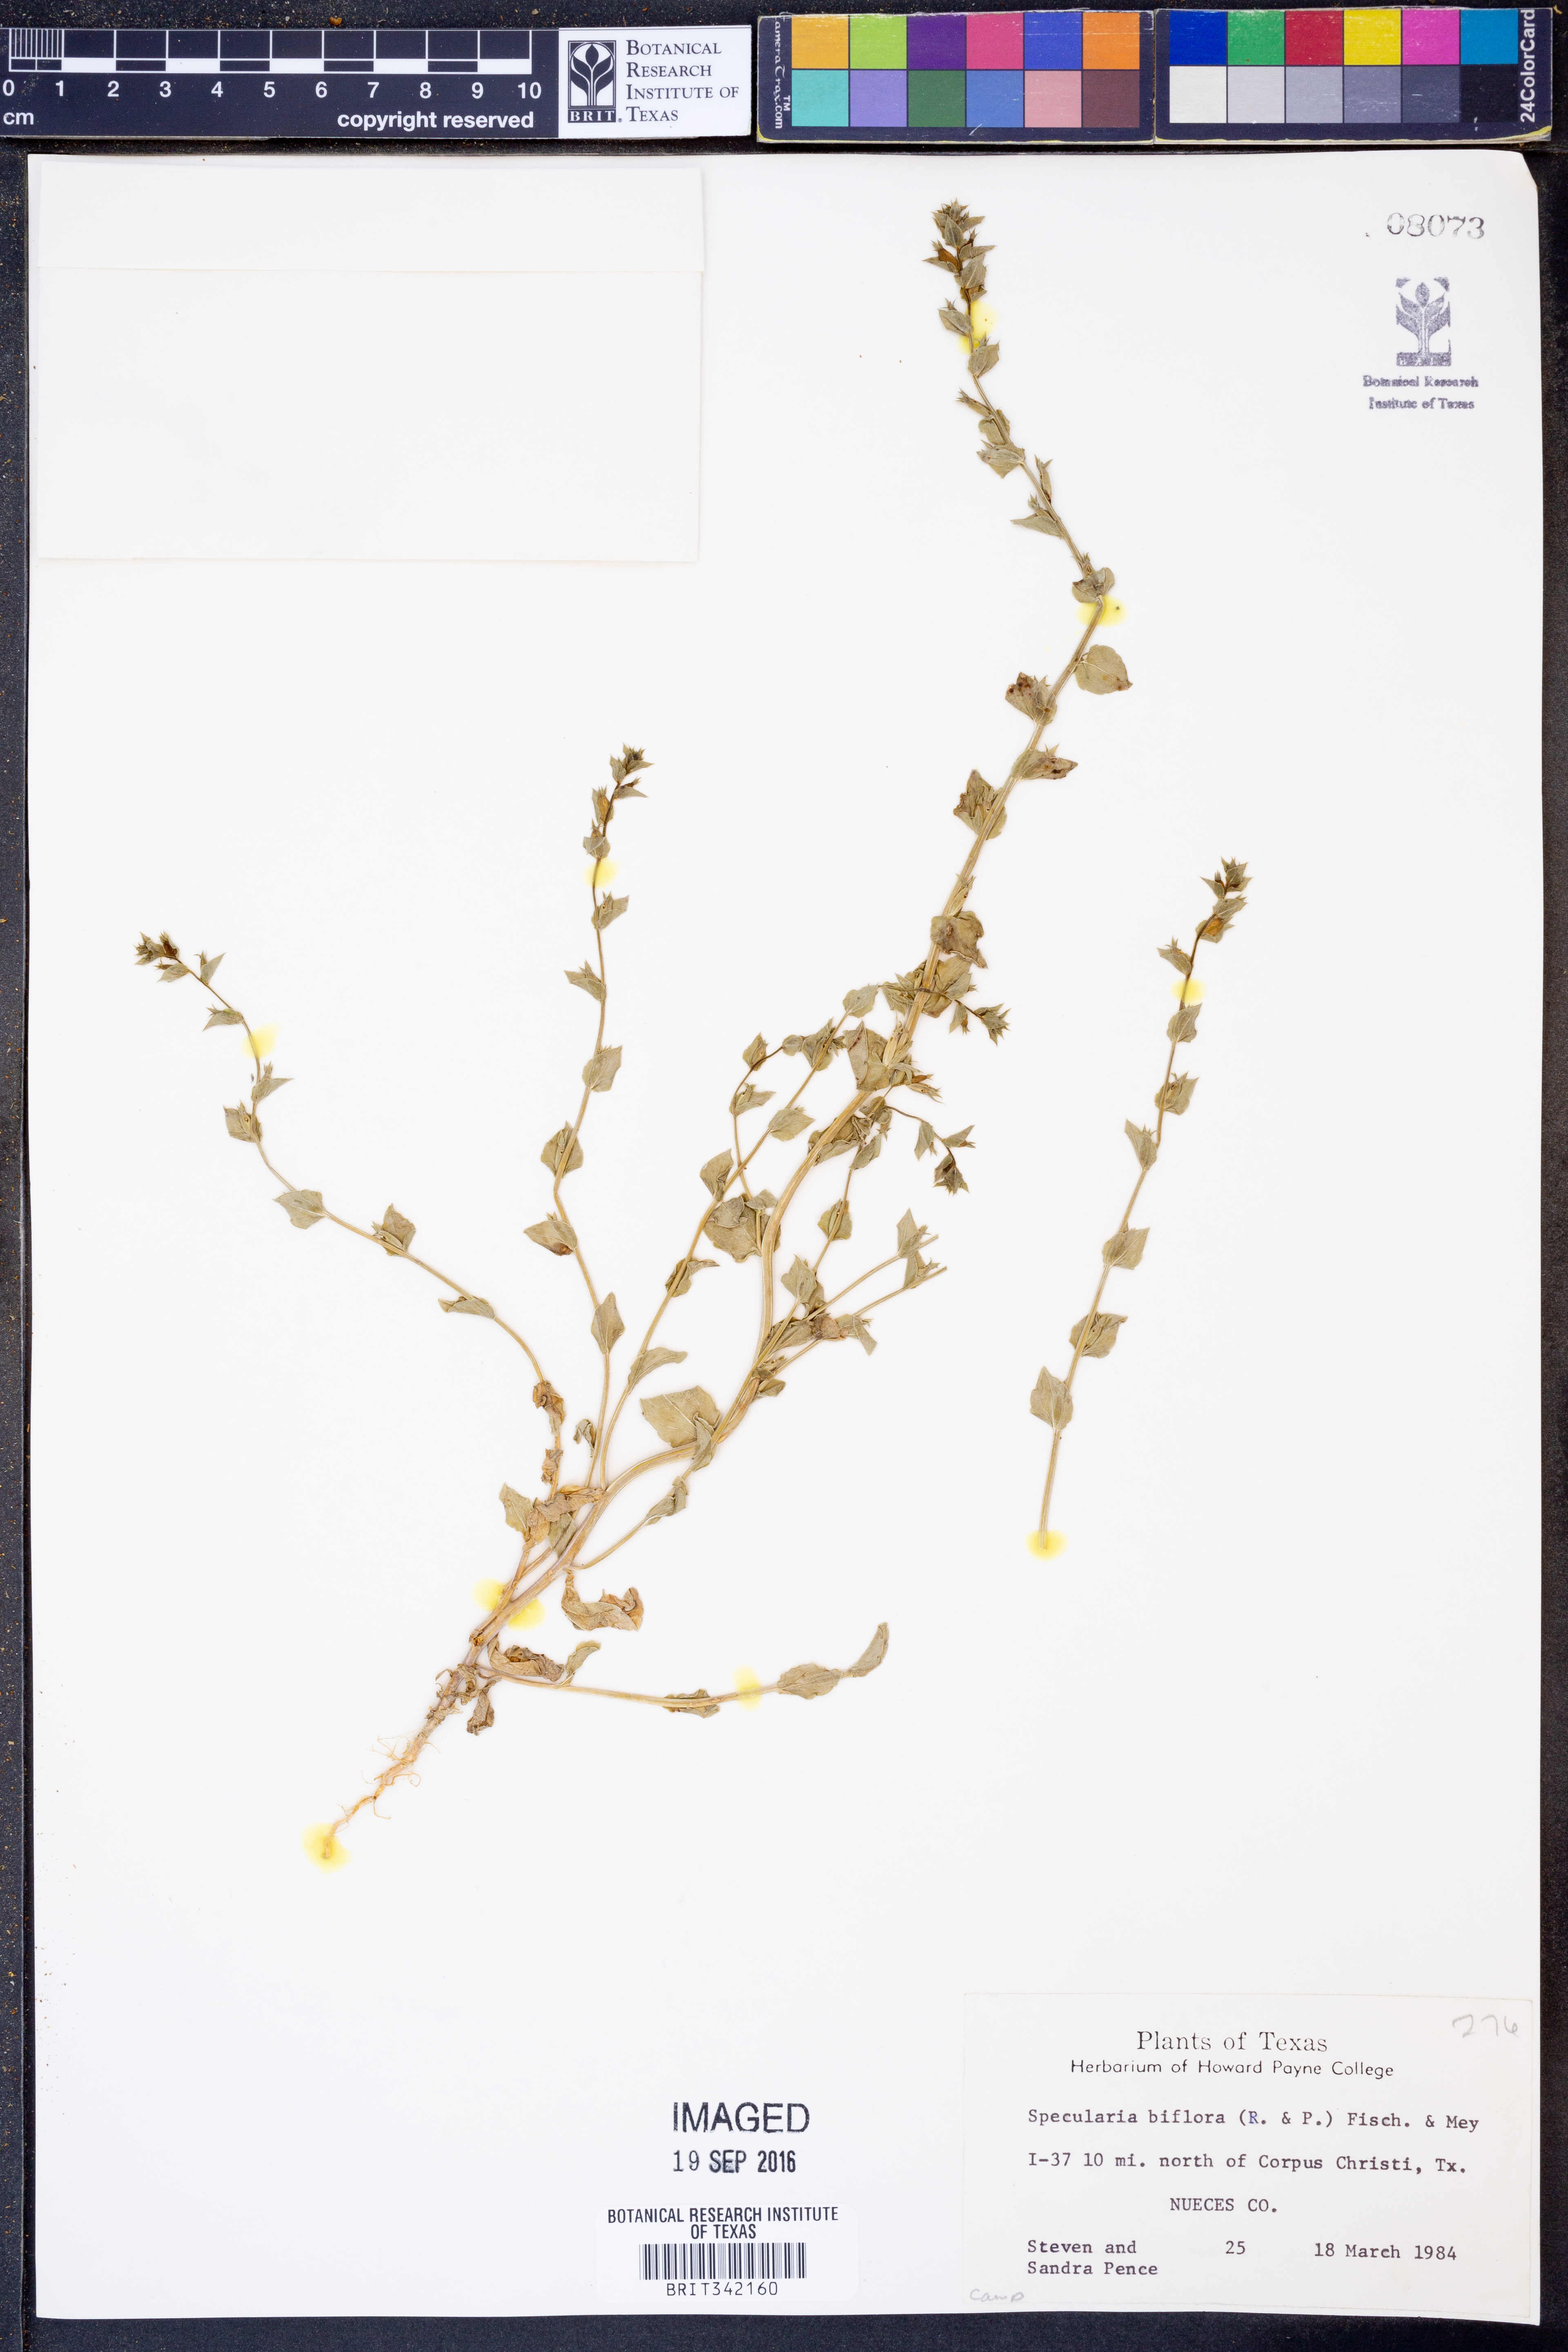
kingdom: Plantae
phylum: Tracheophyta
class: Magnoliopsida
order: Asterales
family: Campanulaceae
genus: Triodanis
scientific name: Triodanis perfoliata
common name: Clasping venus' looking-glass
